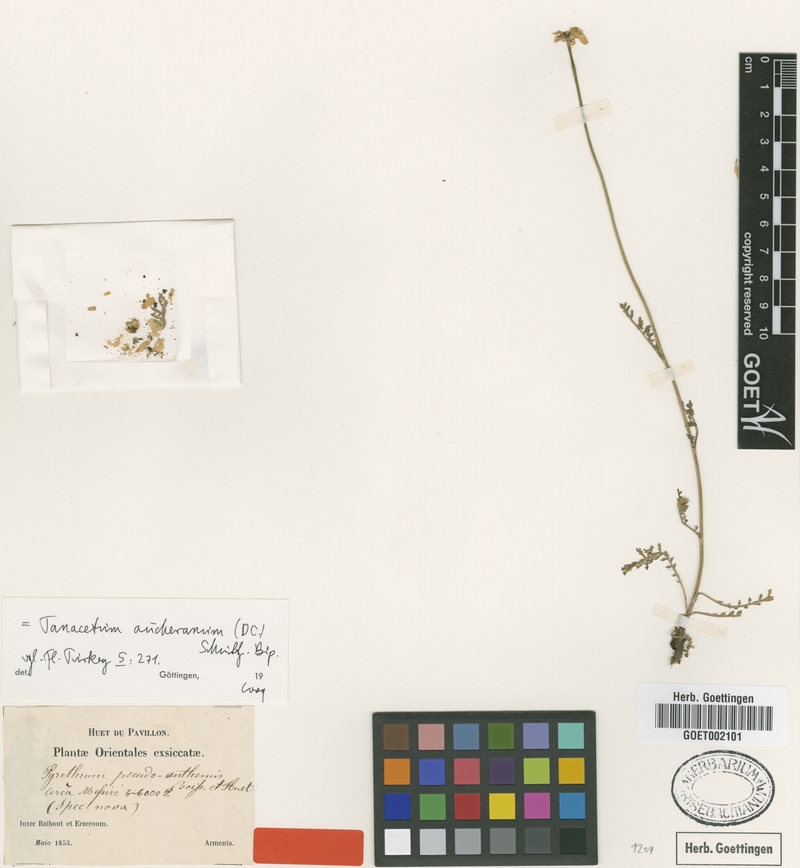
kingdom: Plantae
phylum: Tracheophyta
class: Magnoliopsida
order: Asterales
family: Asteraceae
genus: Tanacetum
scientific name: Tanacetum aucherianum
